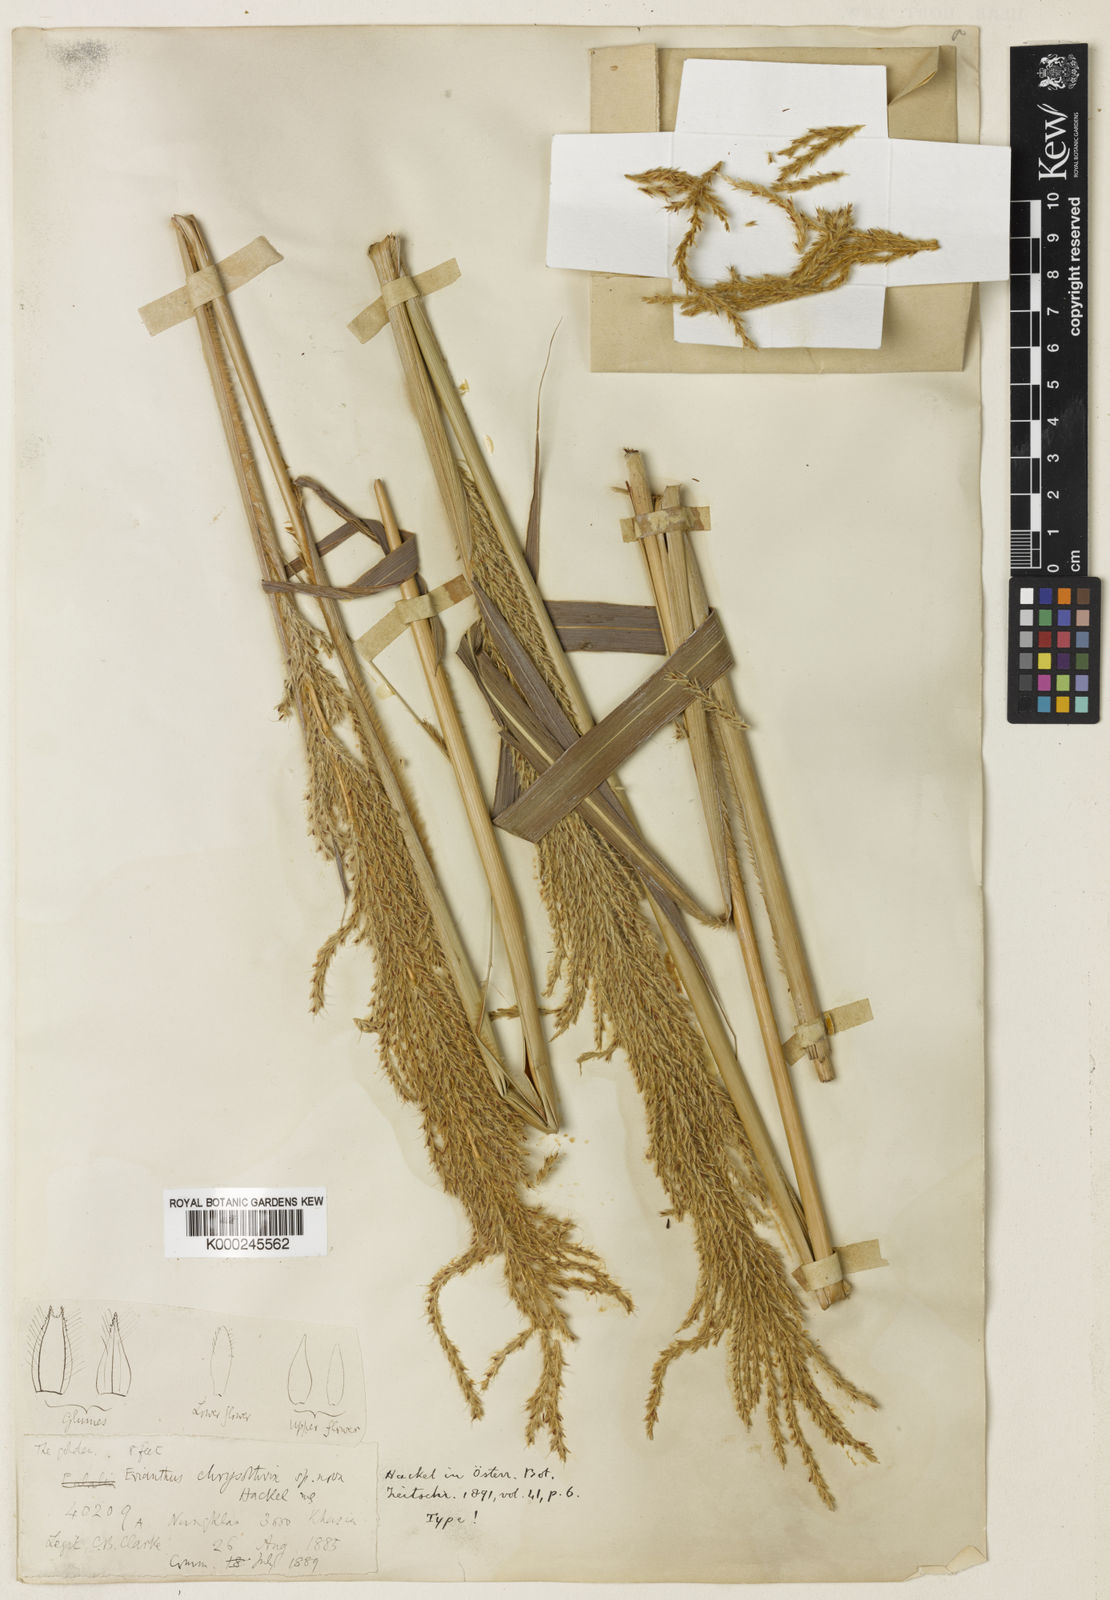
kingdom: Plantae
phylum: Tracheophyta
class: Liliopsida
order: Poales
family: Poaceae
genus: Narenga
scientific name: Narenga fallax
